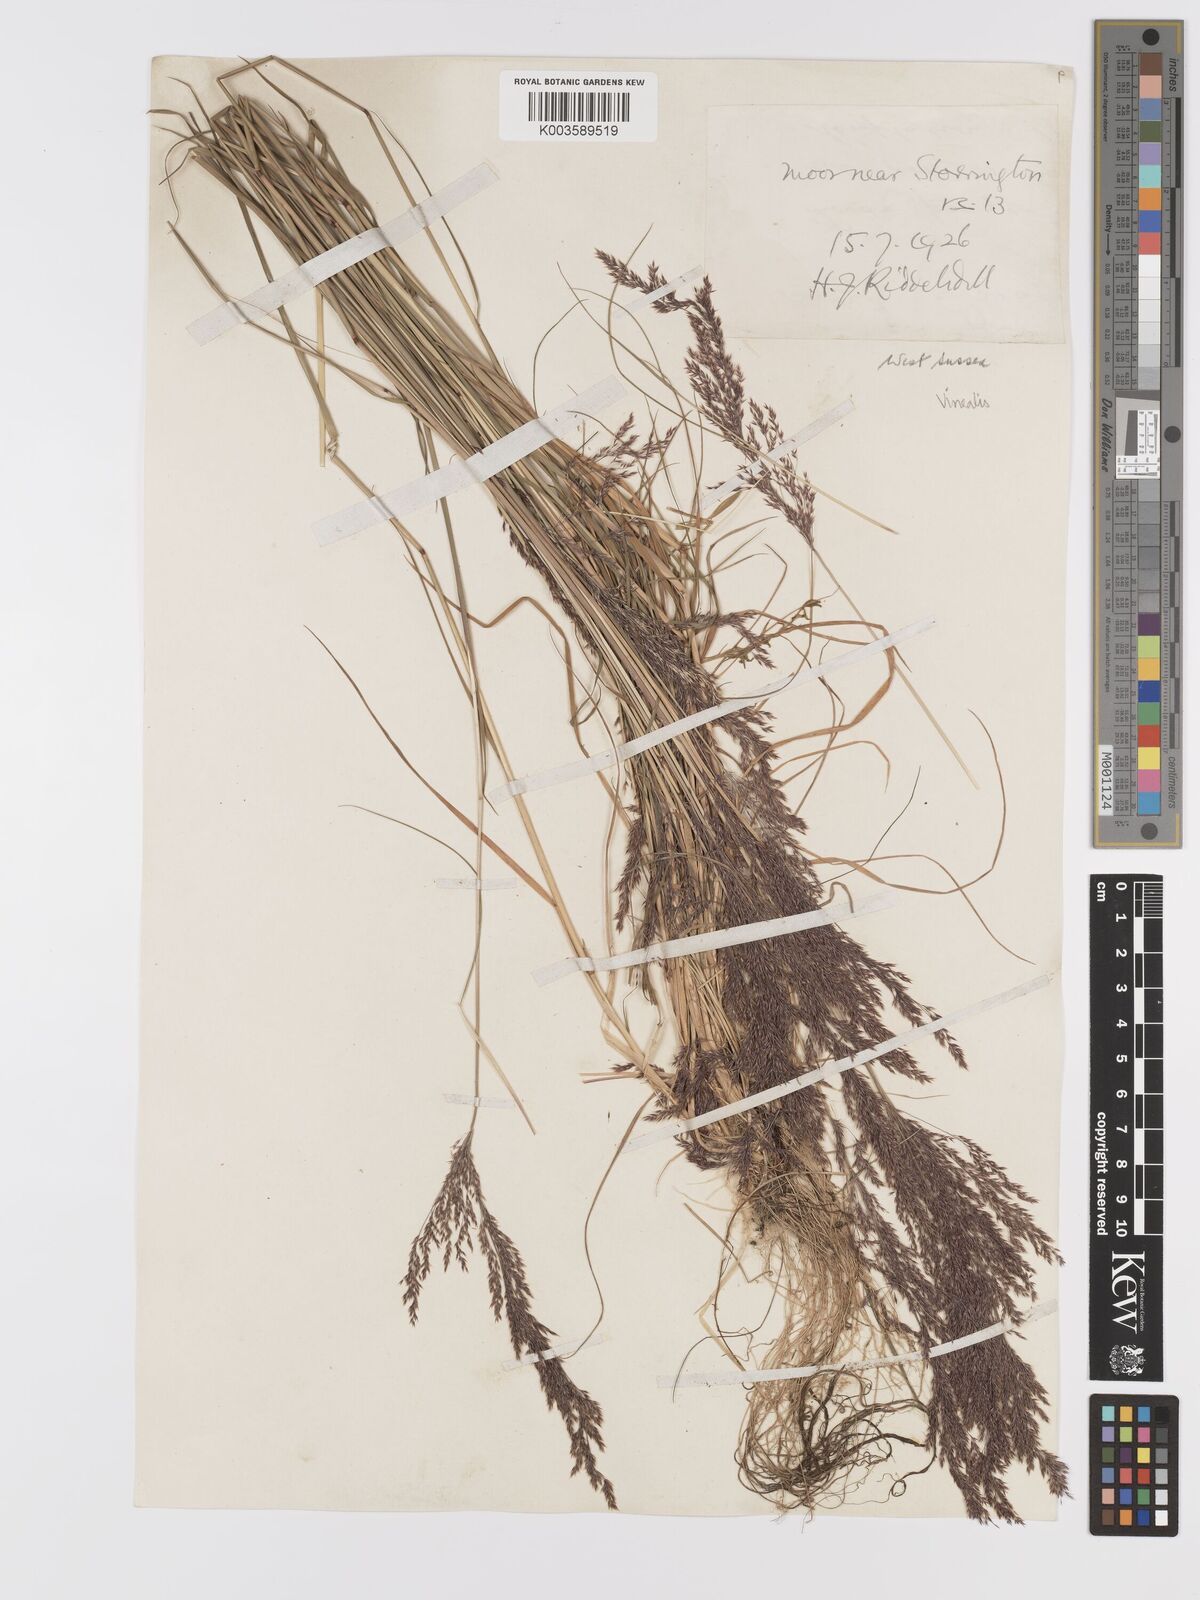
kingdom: Plantae
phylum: Tracheophyta
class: Liliopsida
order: Poales
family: Poaceae
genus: Agrostis
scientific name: Agrostis
